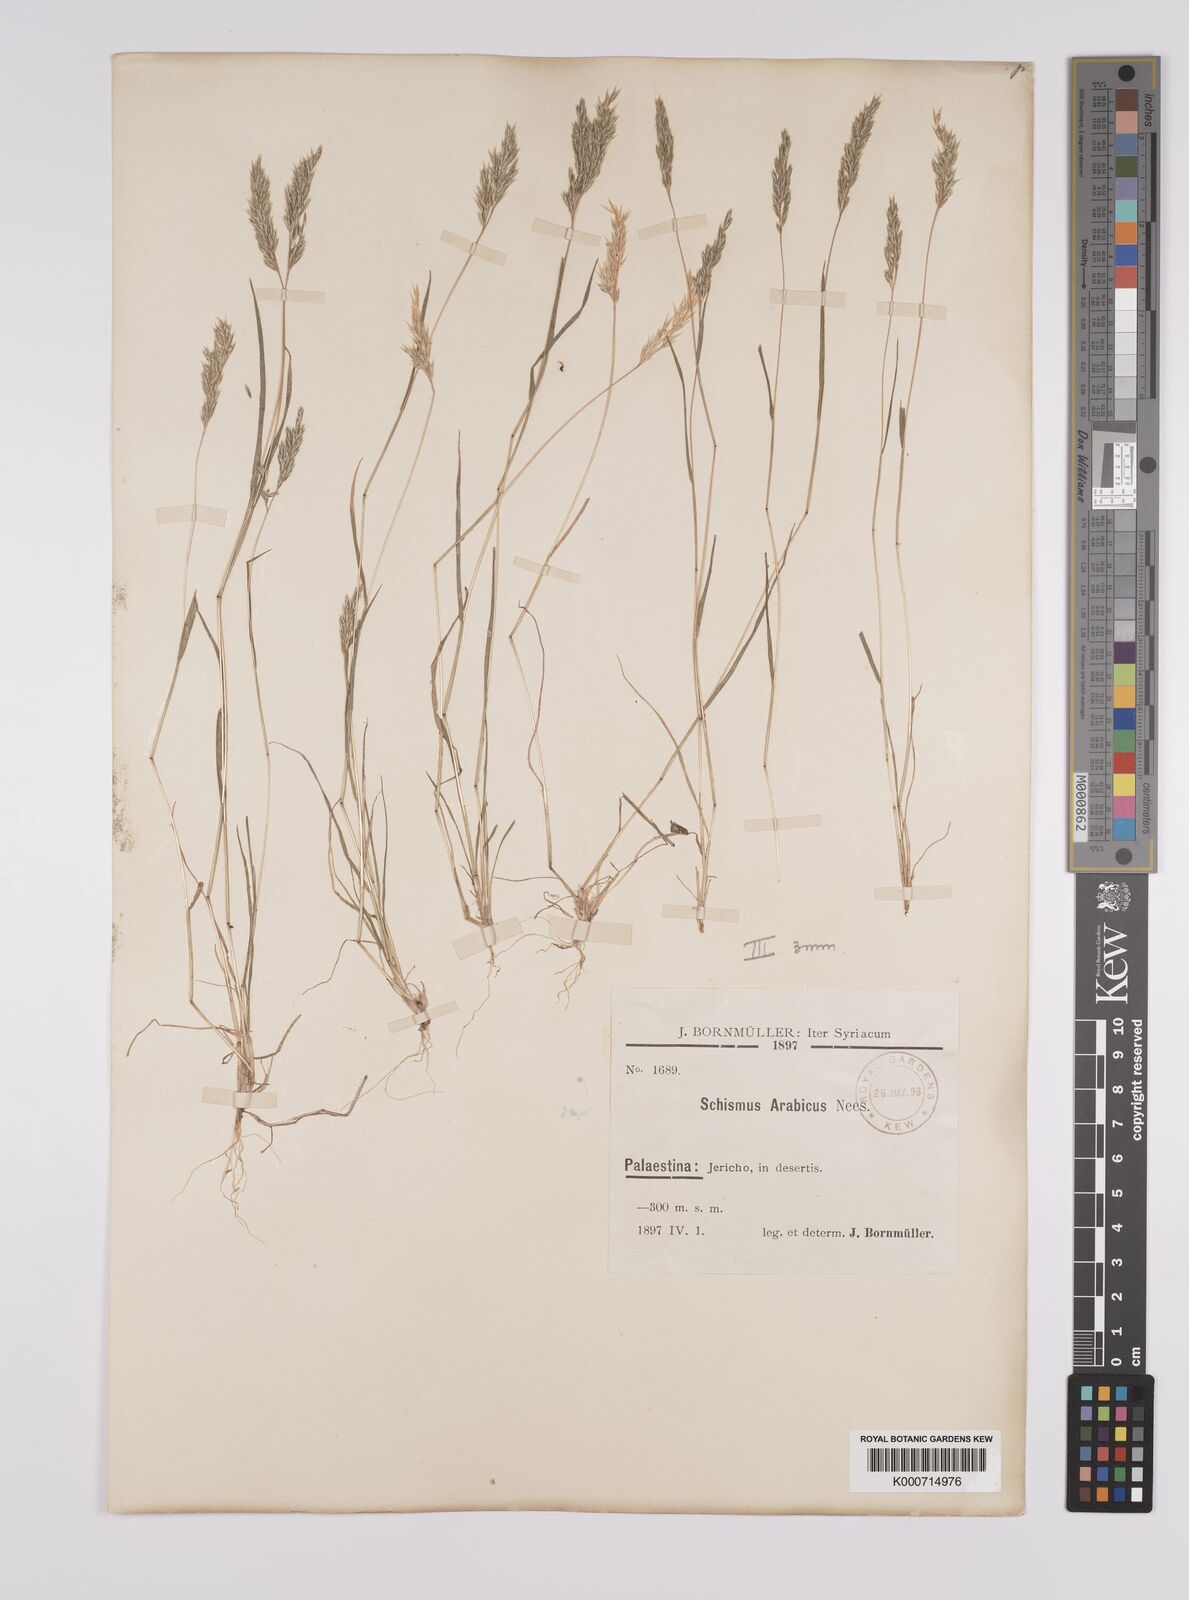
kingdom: Plantae
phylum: Tracheophyta
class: Liliopsida
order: Poales
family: Poaceae
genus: Schismus
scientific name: Schismus arabicus
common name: Arabian schismus
